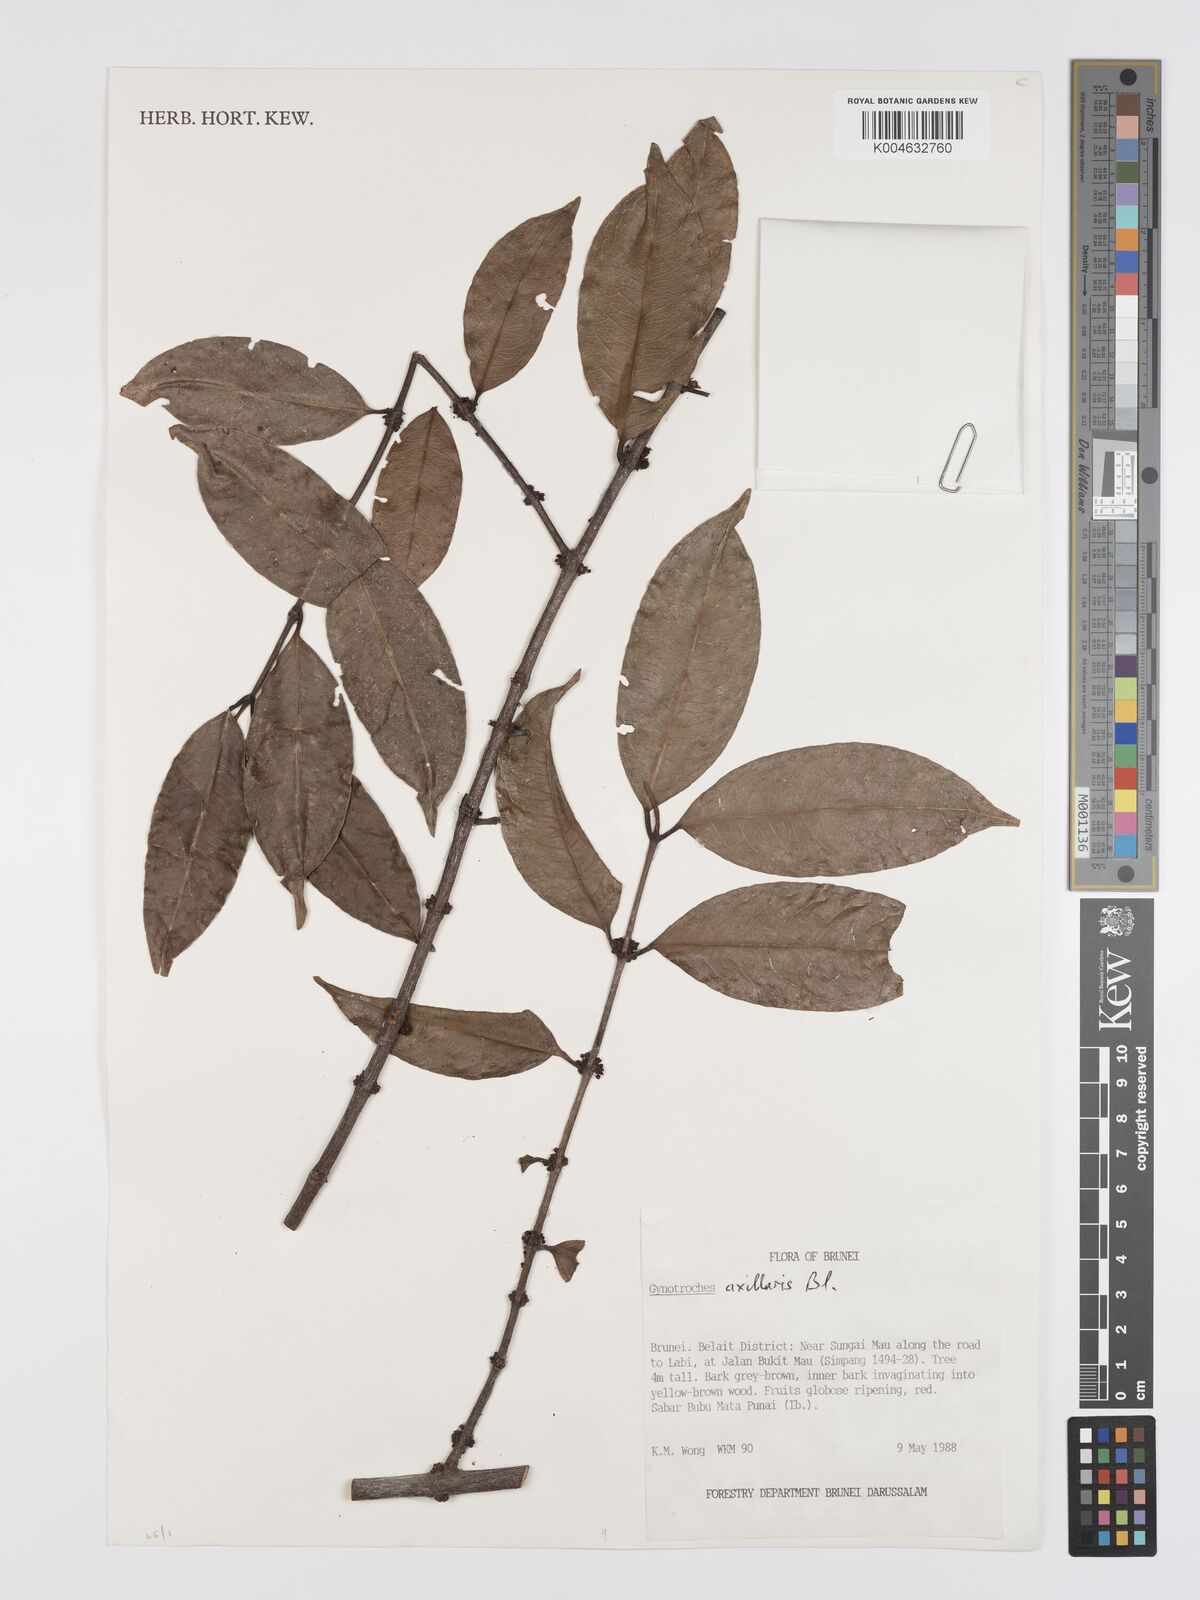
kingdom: Plantae
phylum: Tracheophyta
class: Magnoliopsida
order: Malpighiales
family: Rhizophoraceae
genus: Gynotroches
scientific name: Gynotroches axillaris
